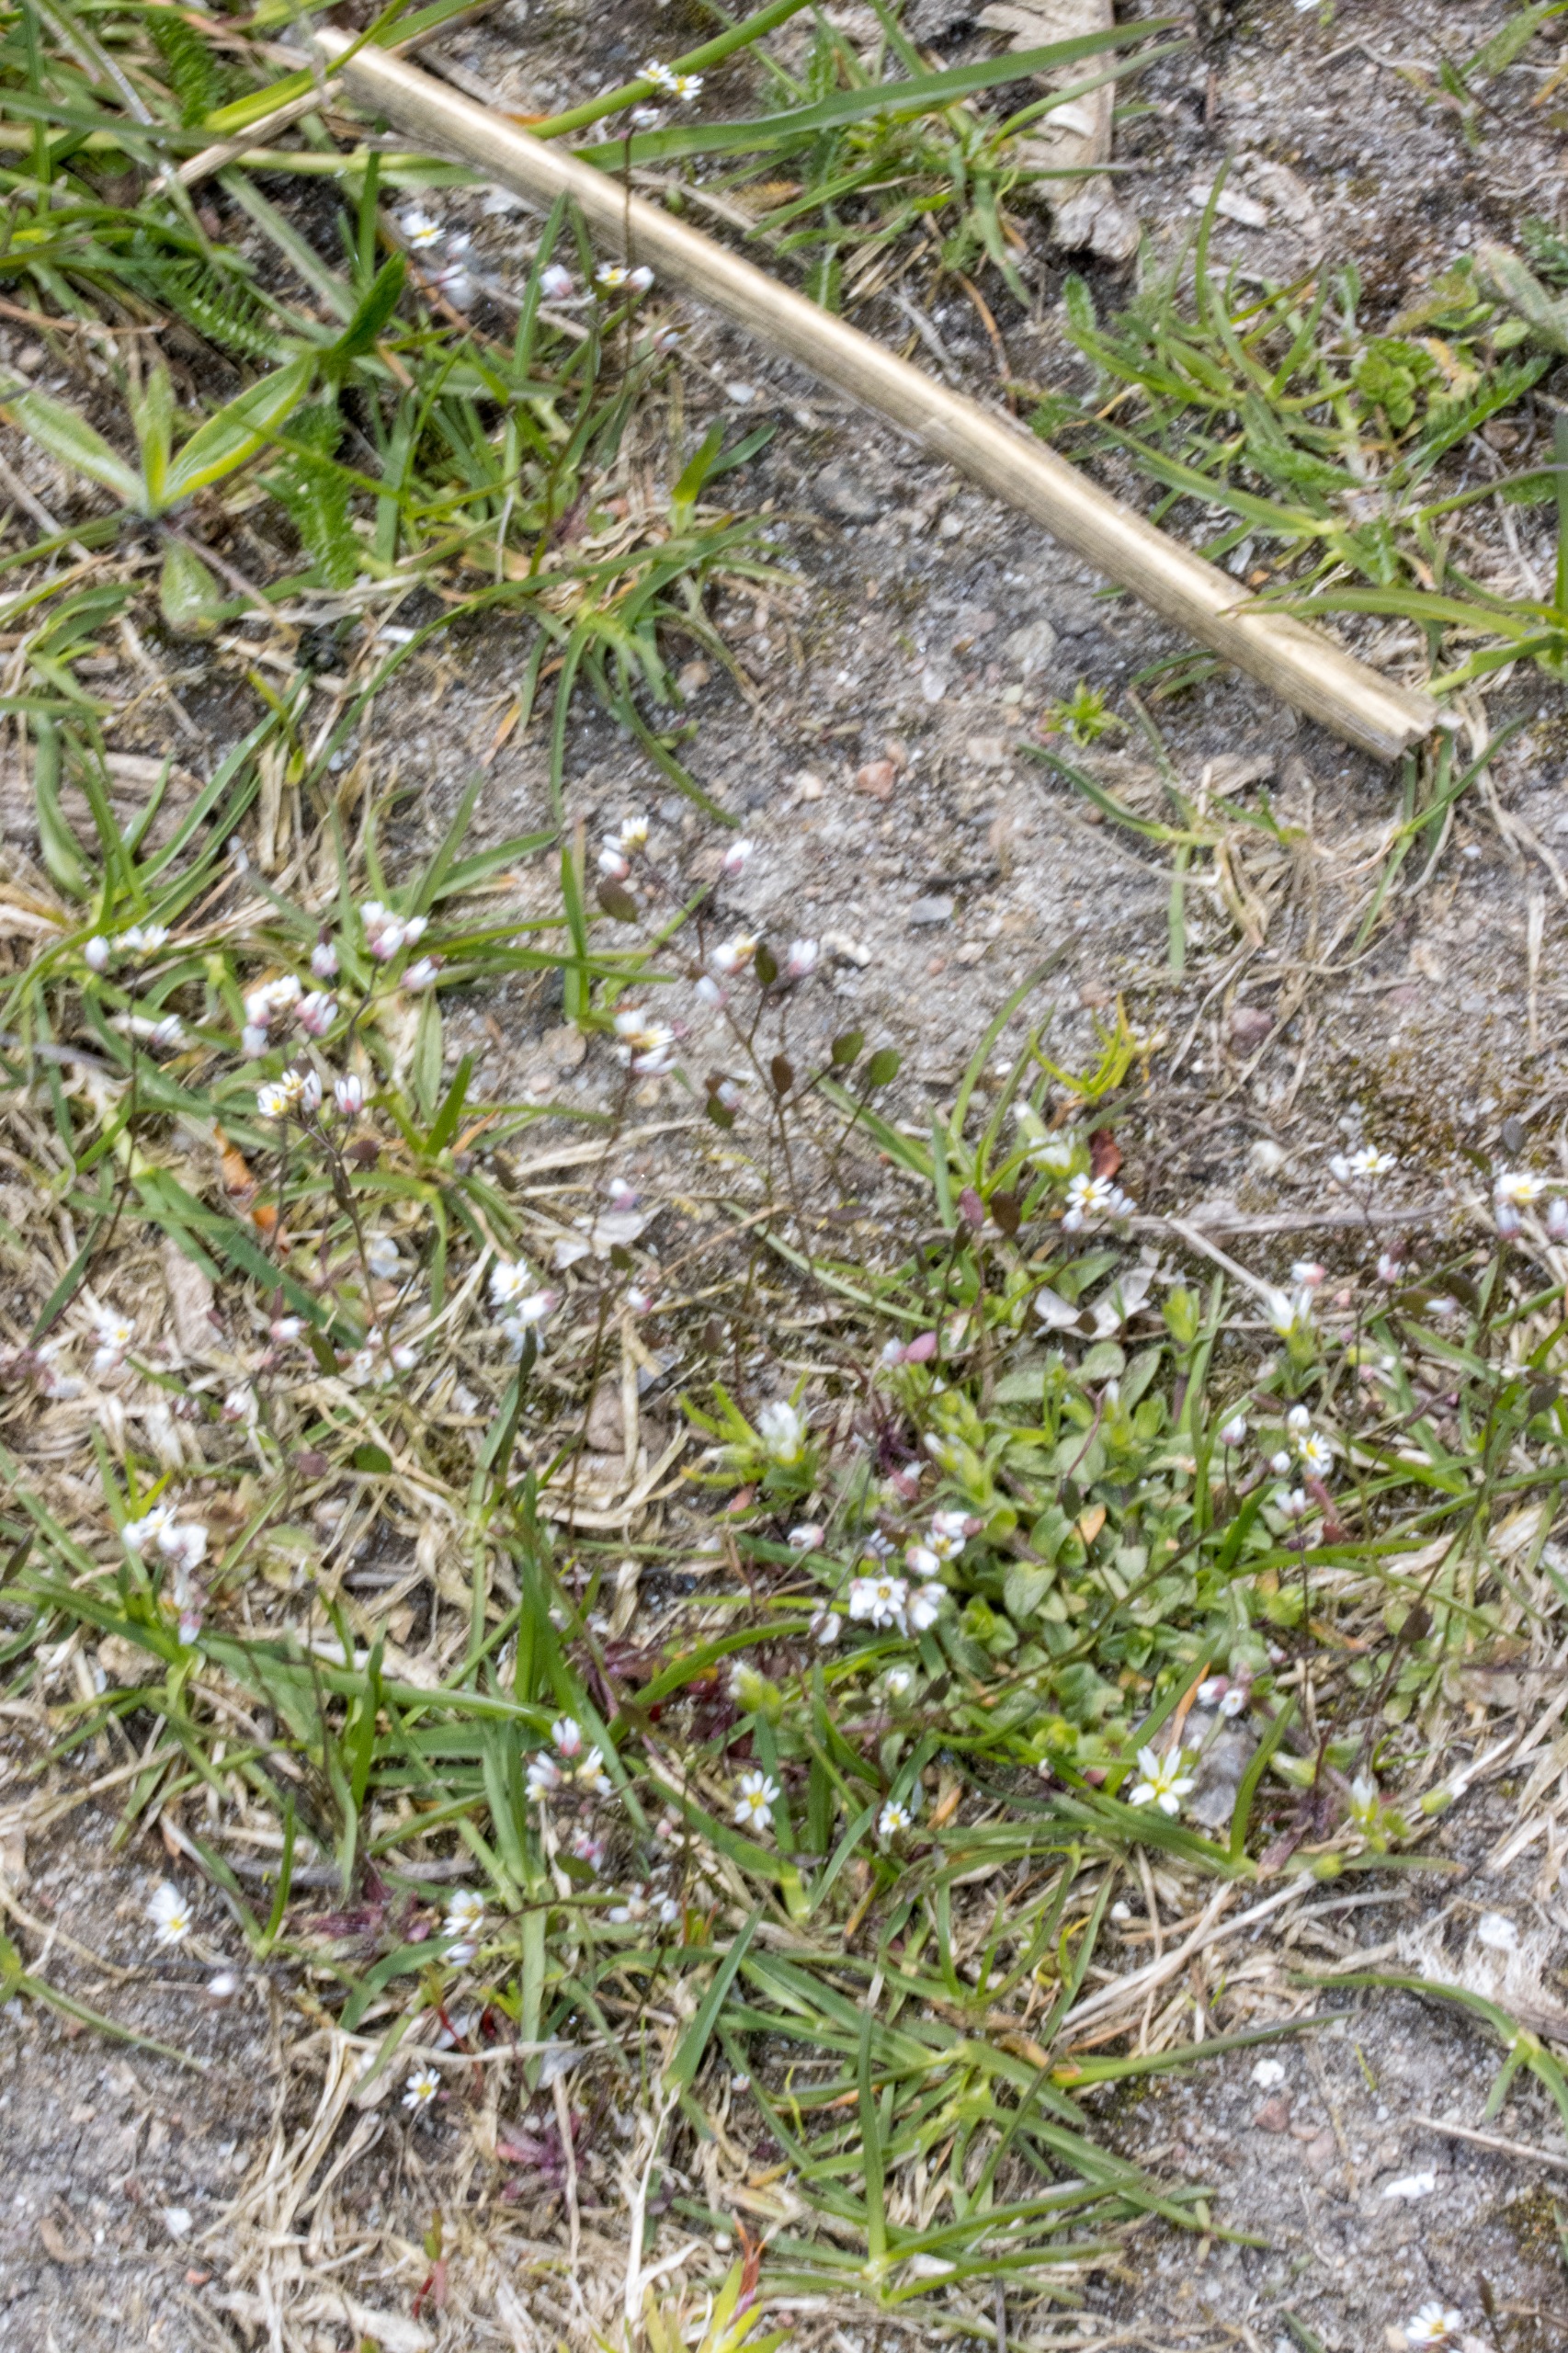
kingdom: Plantae
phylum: Tracheophyta
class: Magnoliopsida
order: Brassicales
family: Brassicaceae
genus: Draba
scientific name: Draba verna
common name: Vår-gæslingeblomst
